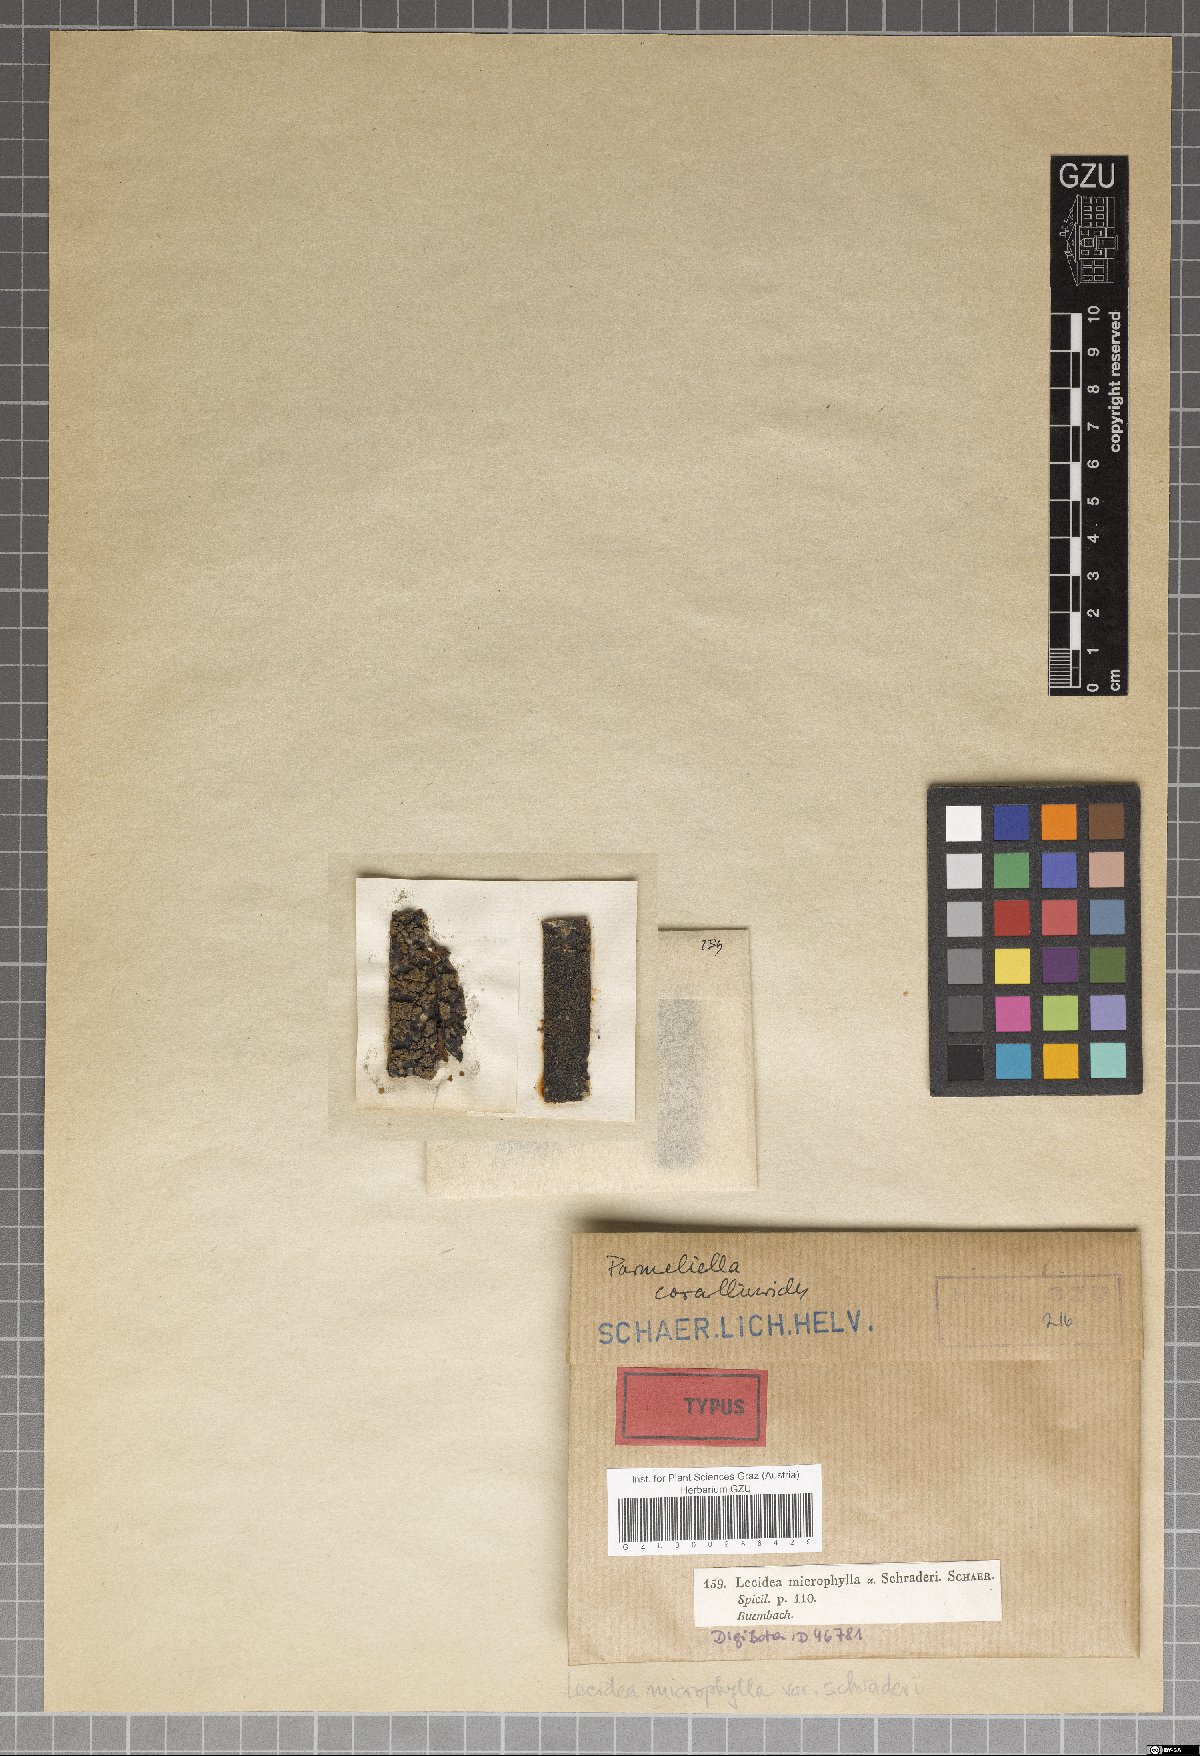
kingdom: Fungi
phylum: Ascomycota
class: Lecanoromycetes
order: Peltigerales
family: Pannariaceae
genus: Parmeliella
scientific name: Parmeliella thriptophylla
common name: Black-bordered shingle lichen
